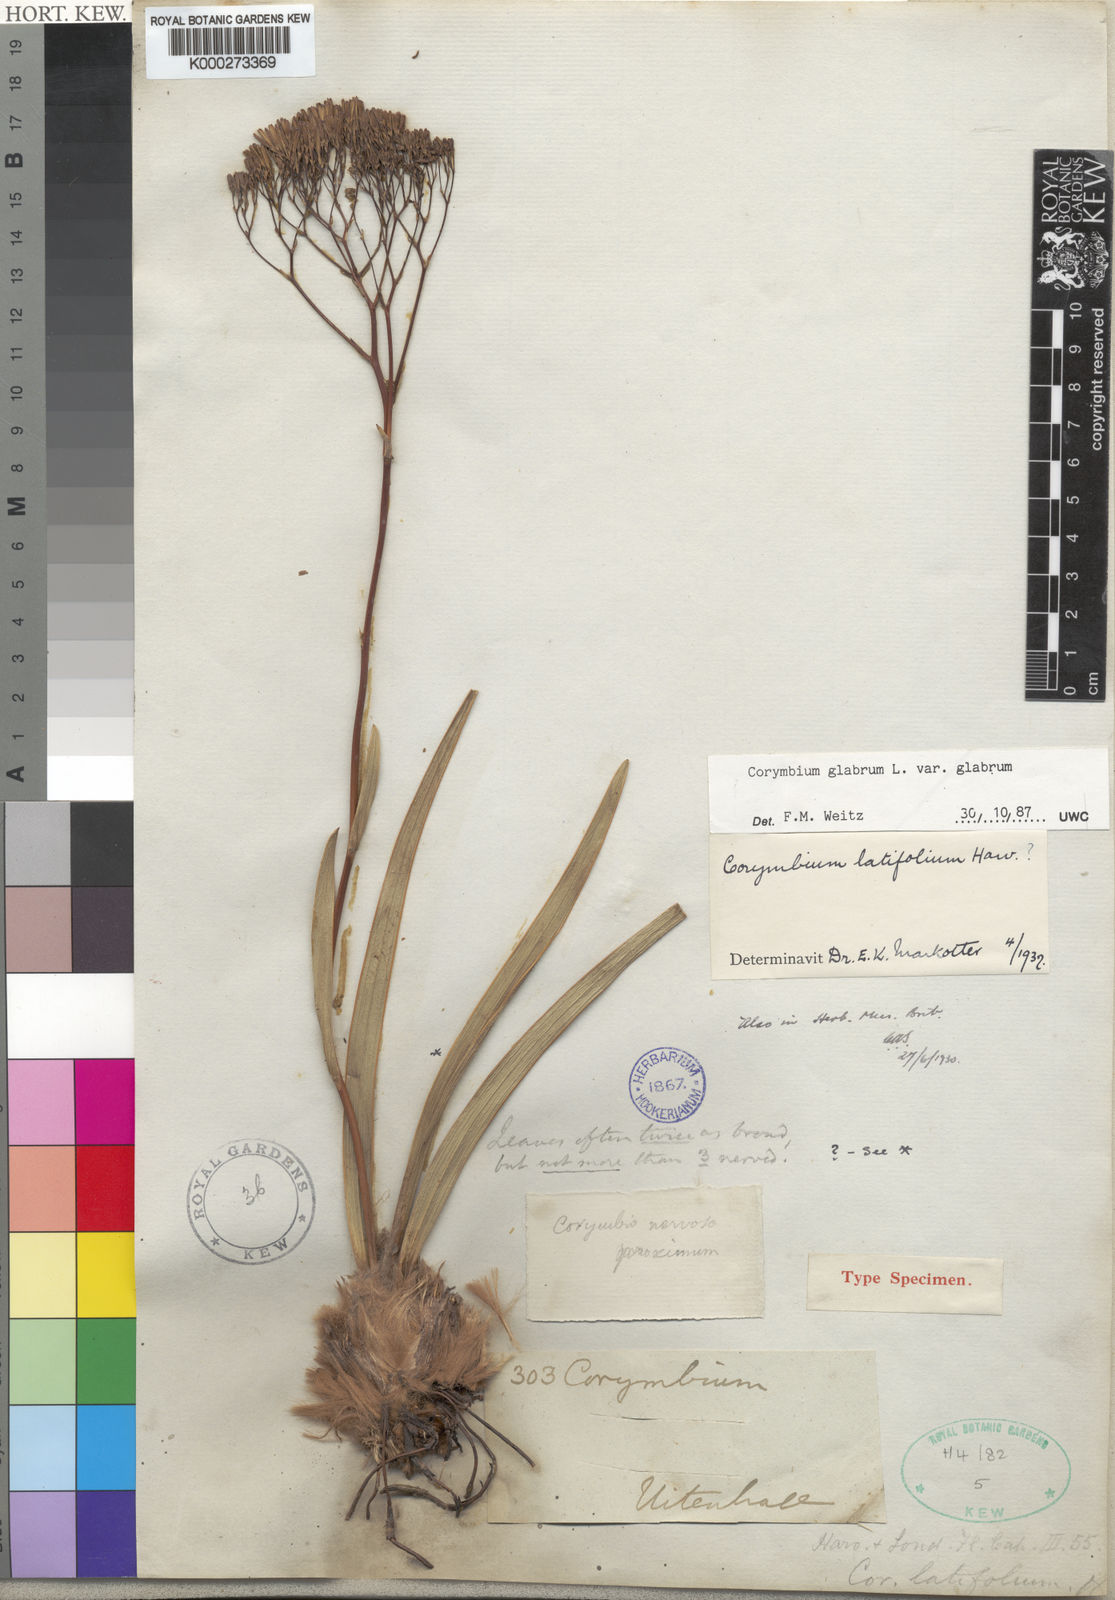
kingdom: Plantae
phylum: Tracheophyta
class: Magnoliopsida
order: Asterales
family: Asteraceae
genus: Corymbium
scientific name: Corymbium glabrum
